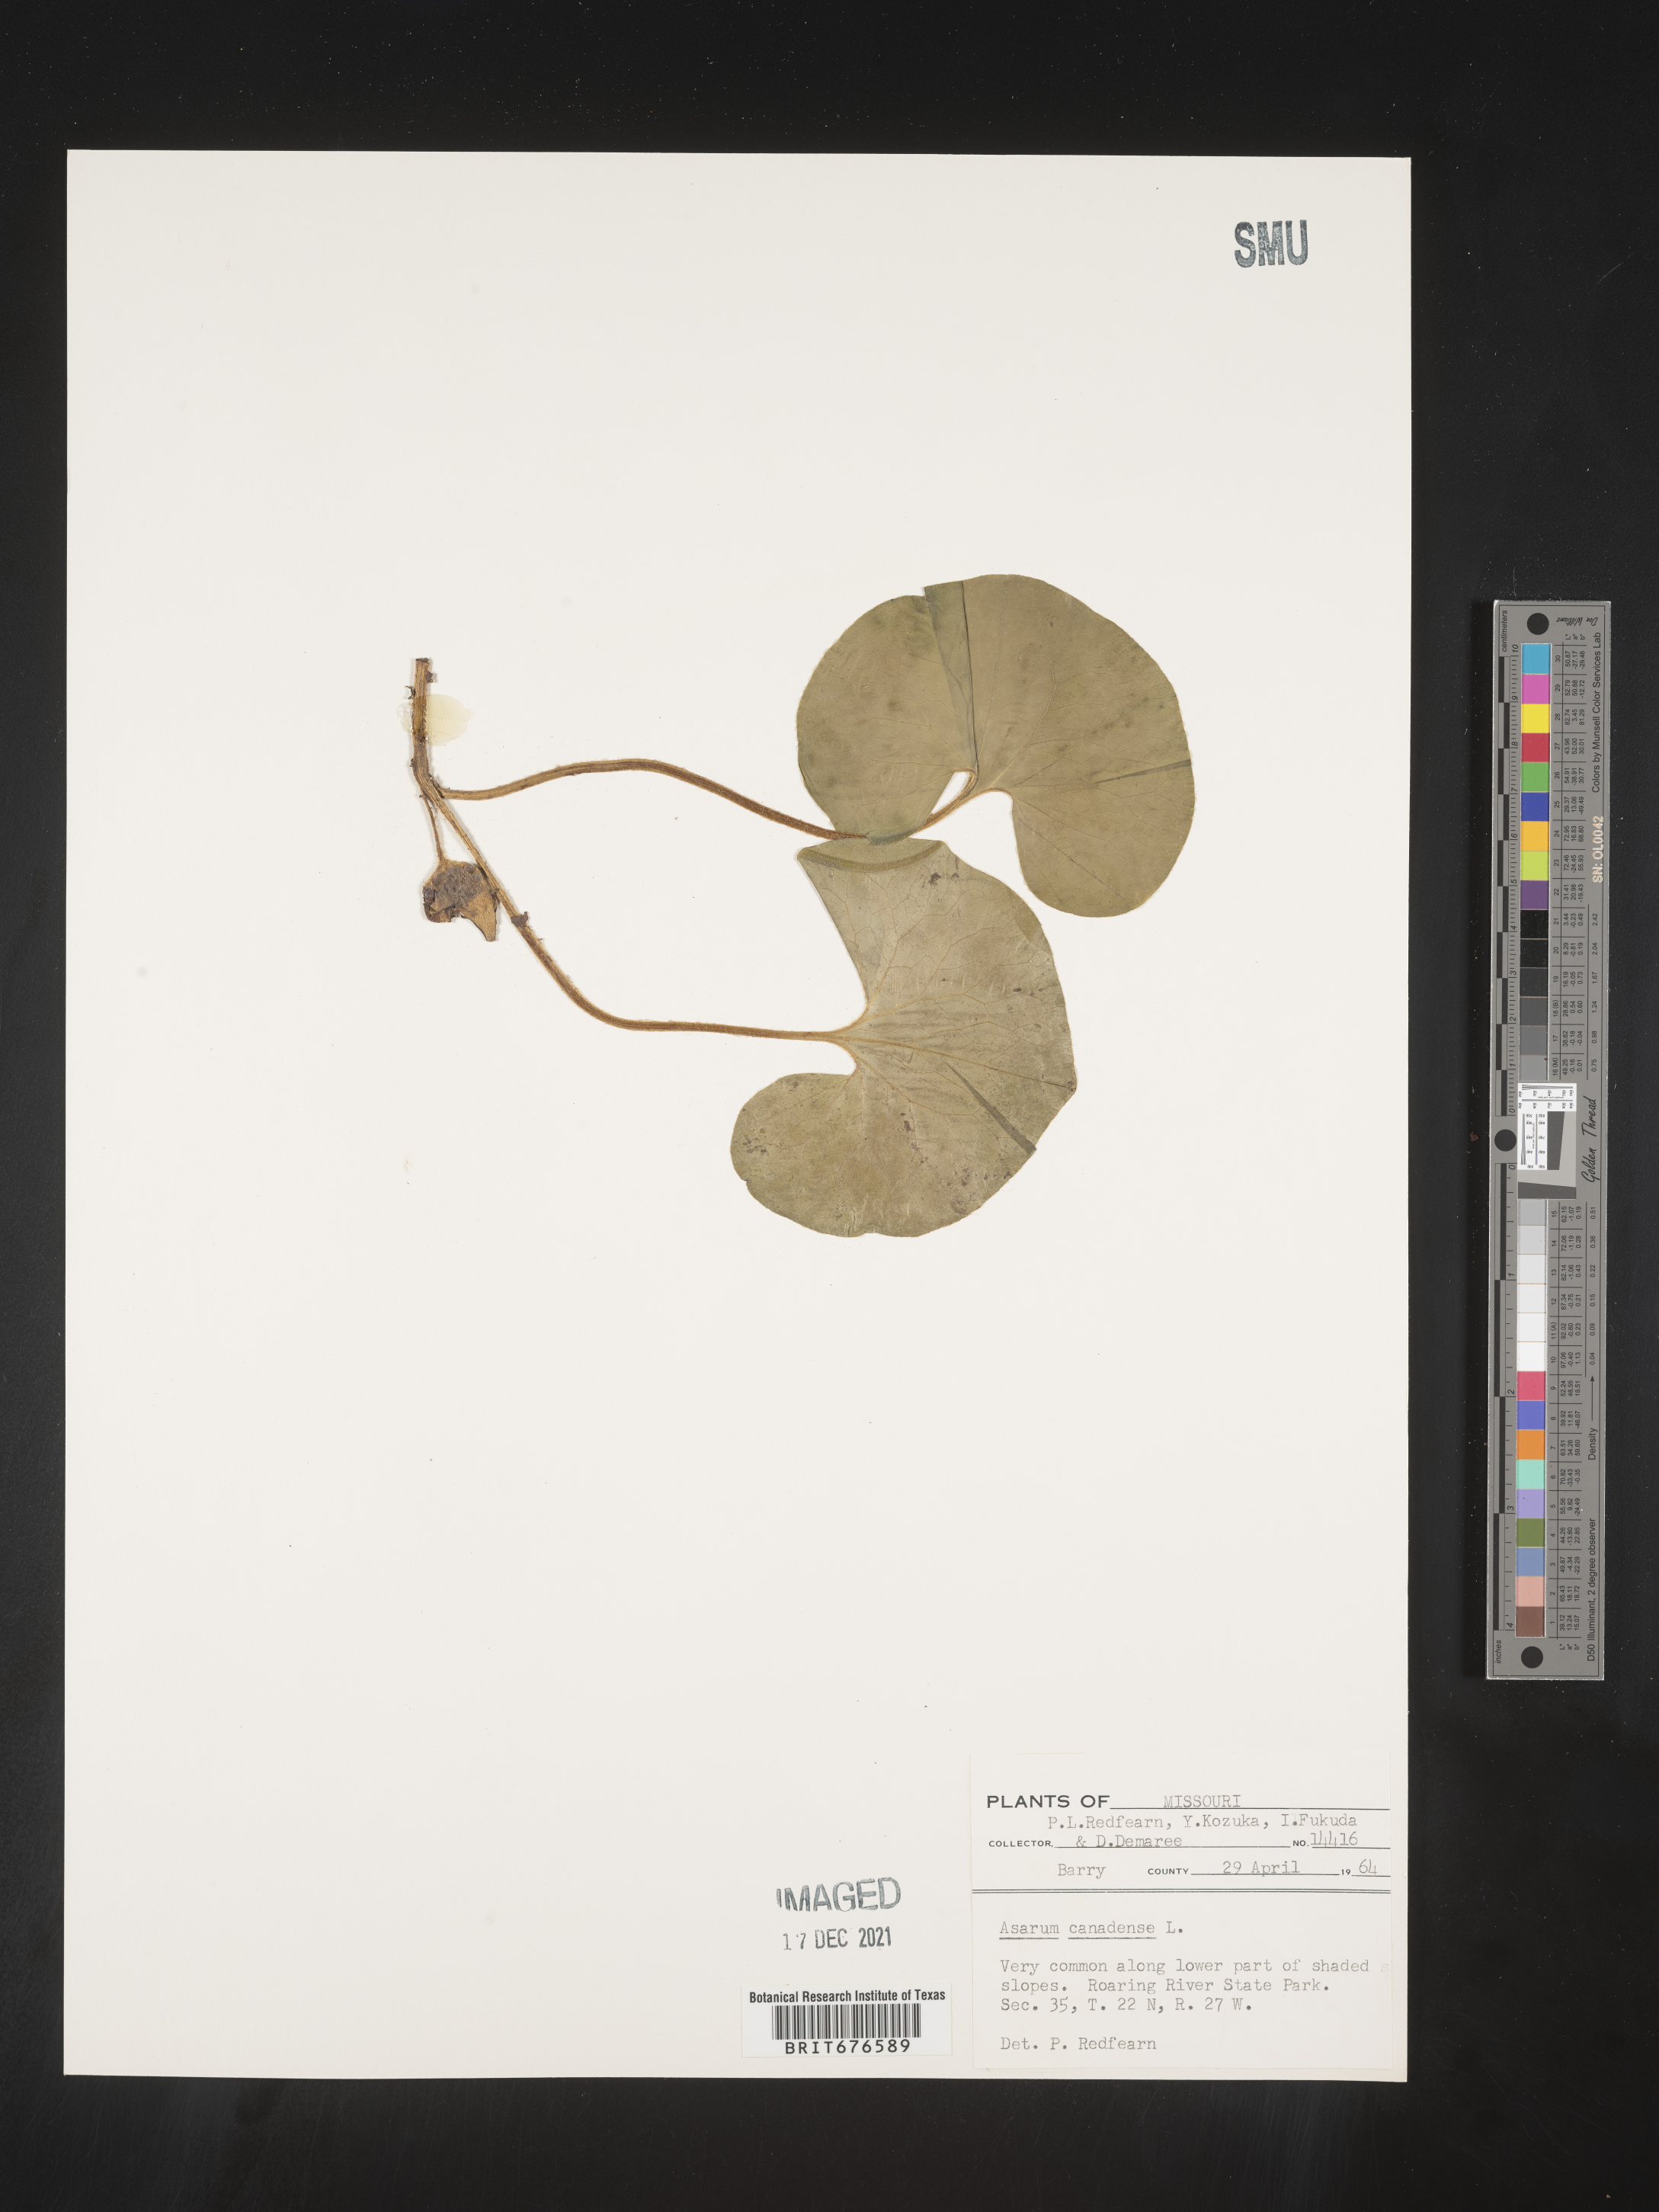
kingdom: Plantae
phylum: Tracheophyta
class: Magnoliopsida
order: Piperales
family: Aristolochiaceae
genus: Asarum
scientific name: Asarum canadense
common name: Wild ginger
